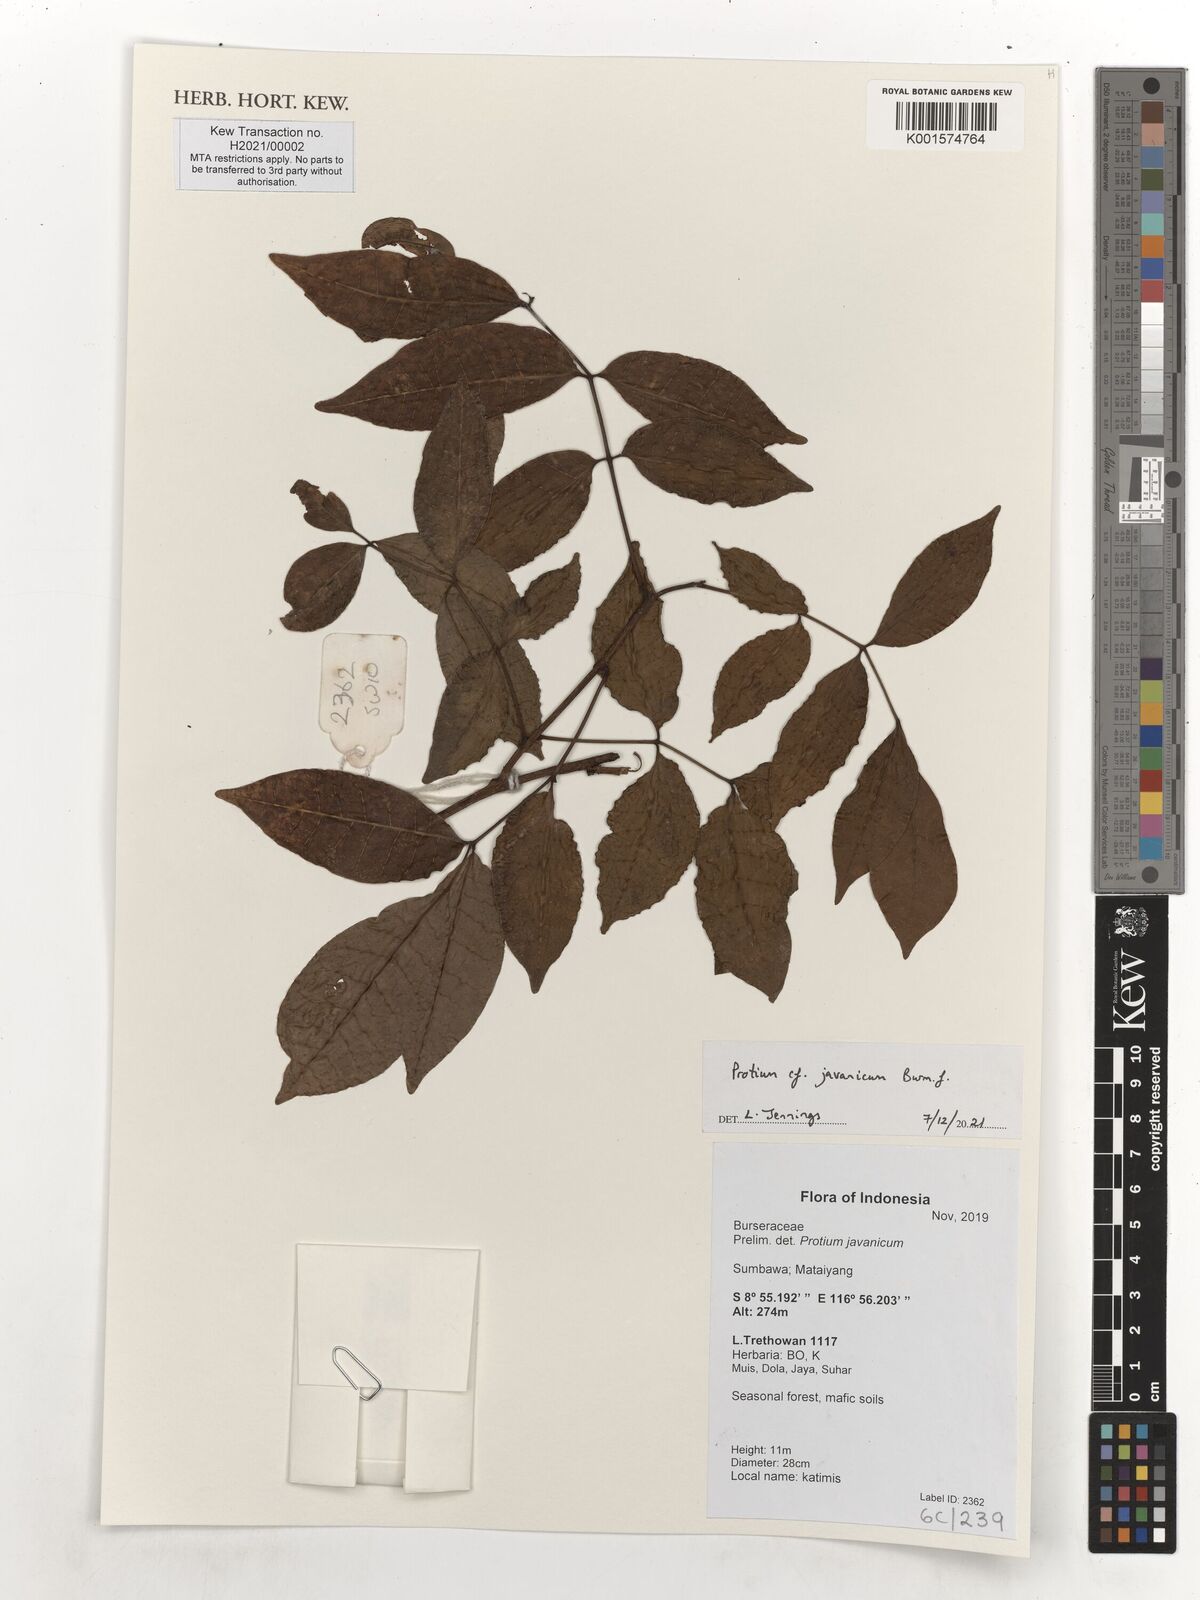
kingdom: Plantae
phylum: Tracheophyta
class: Magnoliopsida
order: Sapindales
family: Burseraceae
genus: Protium
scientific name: Protium javanicum
